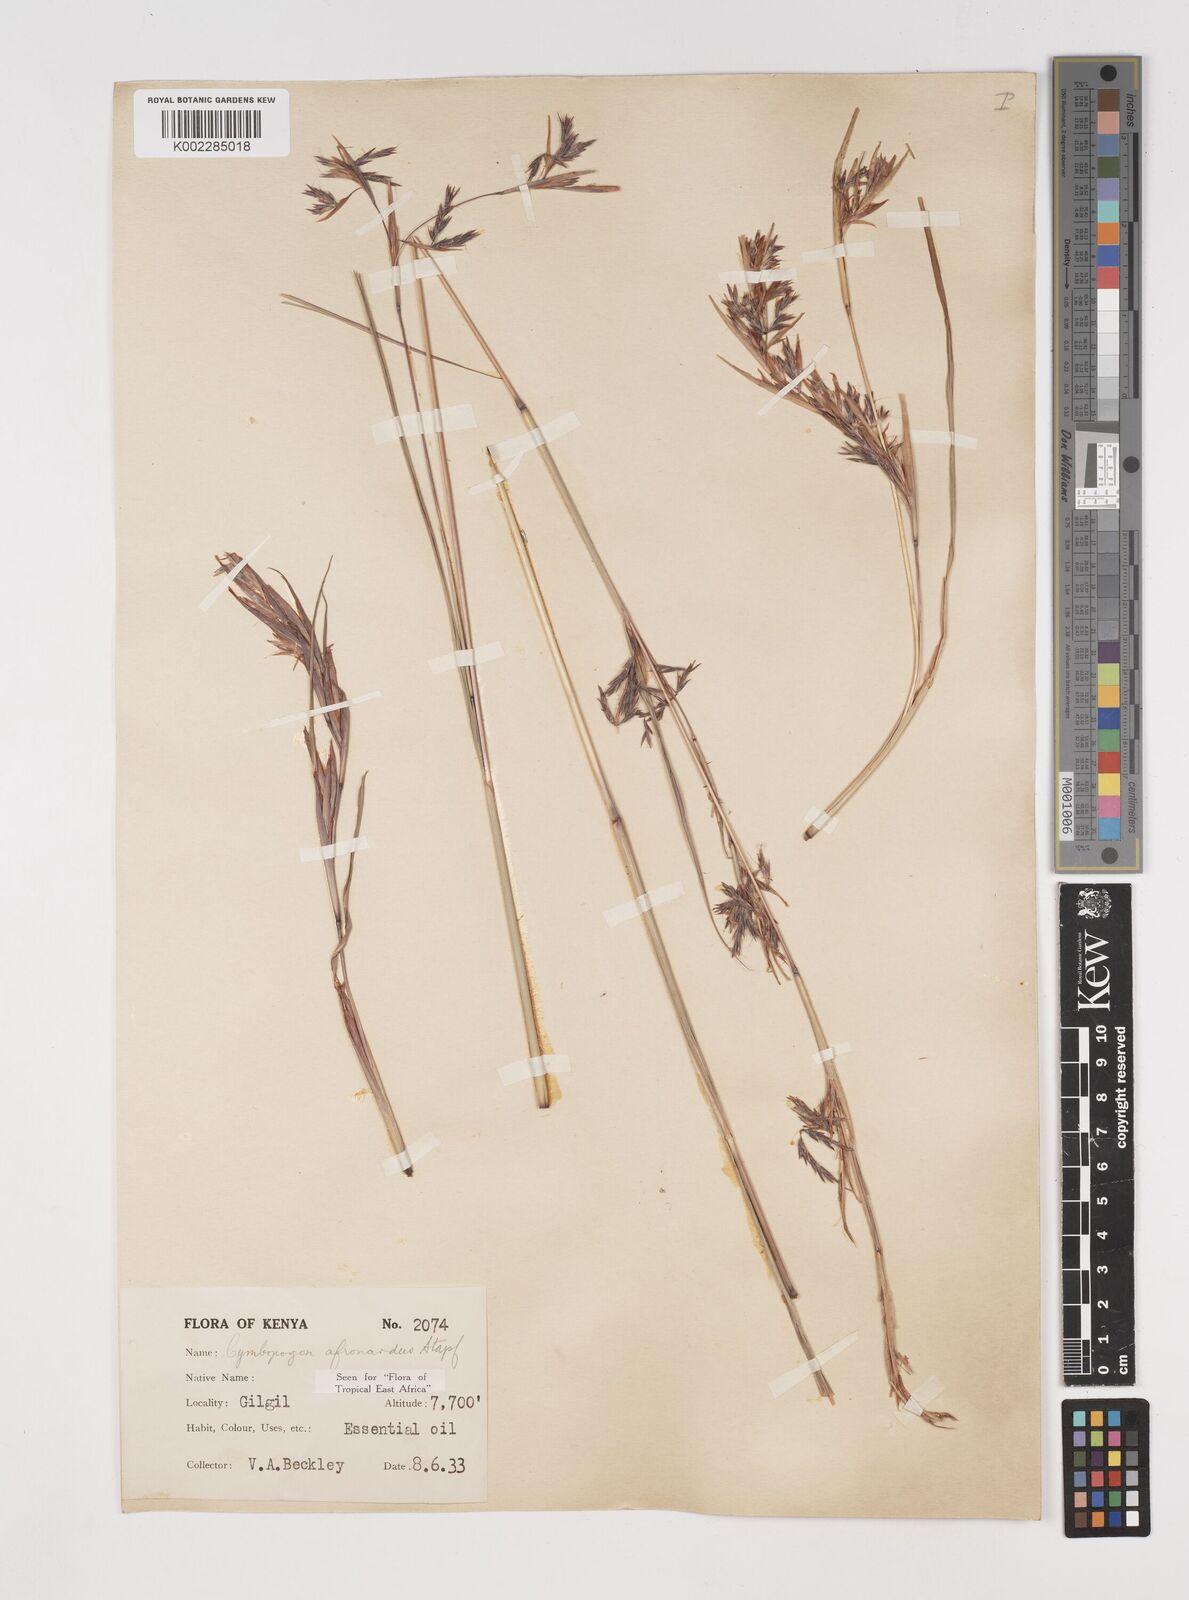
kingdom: Plantae
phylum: Tracheophyta
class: Liliopsida
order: Poales
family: Poaceae
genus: Cymbopogon
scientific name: Cymbopogon nardus
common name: Giant turpentine grass
